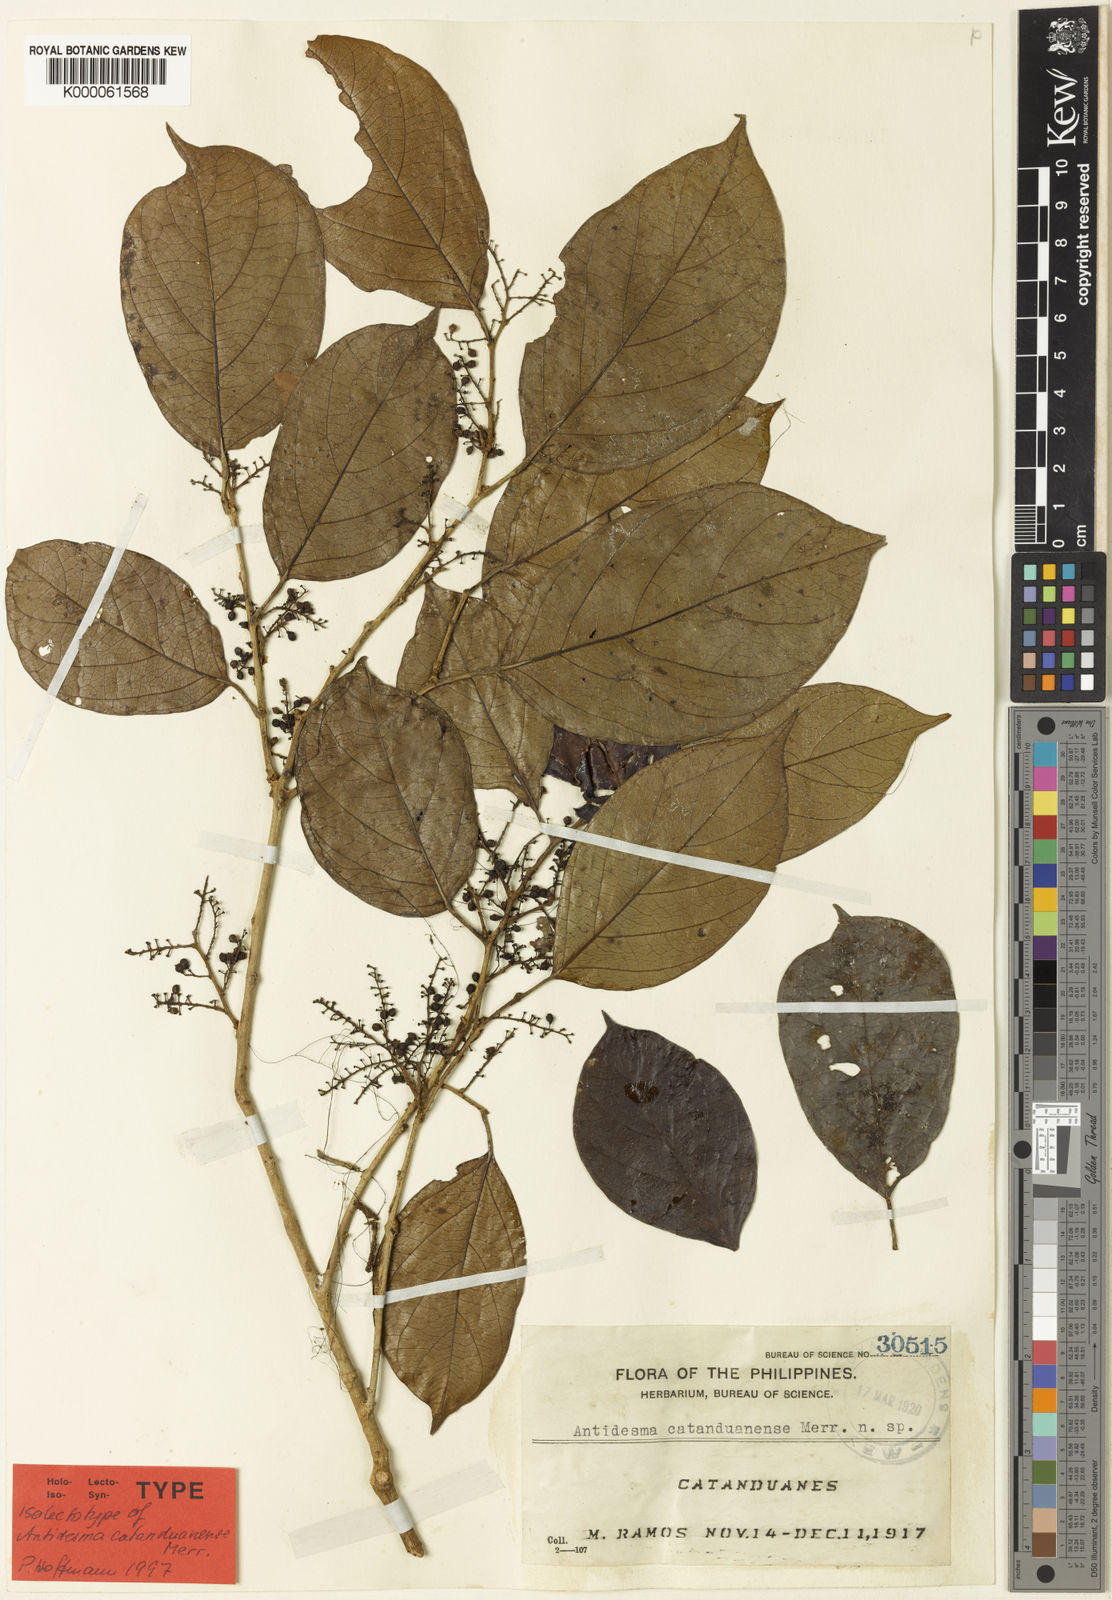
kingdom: Plantae
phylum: Tracheophyta
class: Magnoliopsida
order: Malpighiales
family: Phyllanthaceae
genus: Antidesma
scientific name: Antidesma catanduanense
